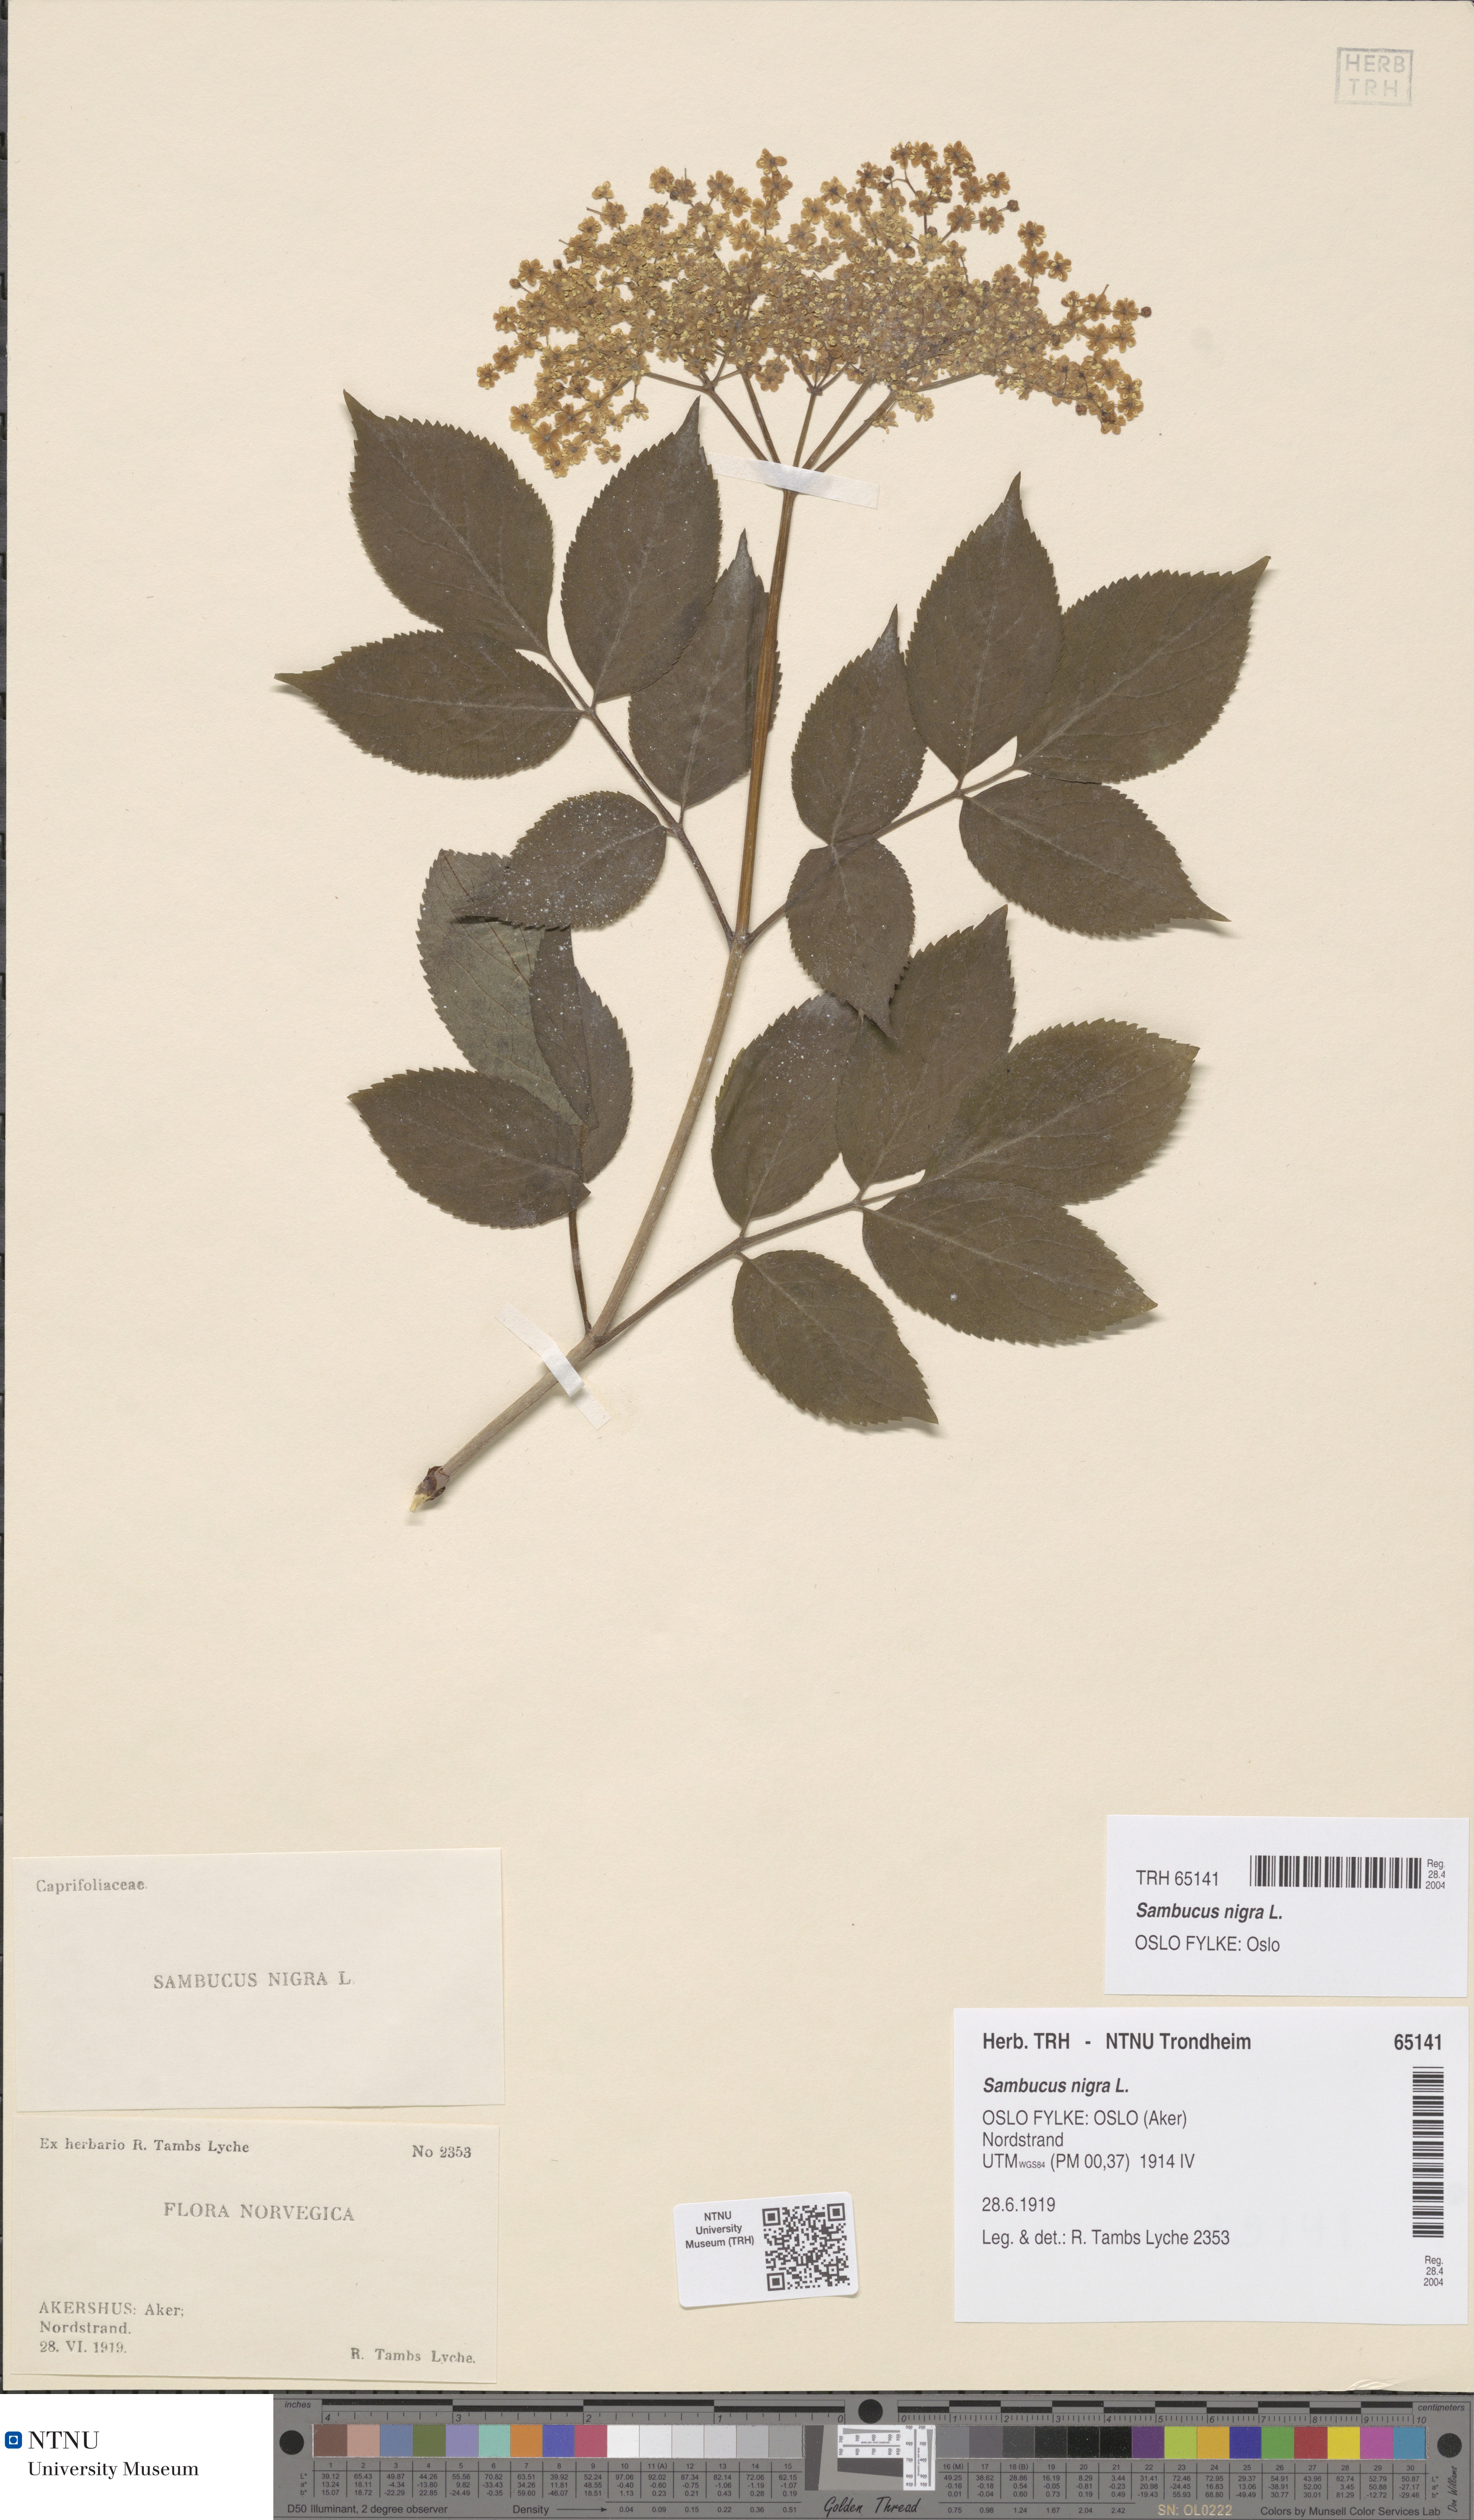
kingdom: Plantae
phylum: Tracheophyta
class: Magnoliopsida
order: Dipsacales
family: Viburnaceae
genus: Sambucus
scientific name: Sambucus nigra
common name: Elder
